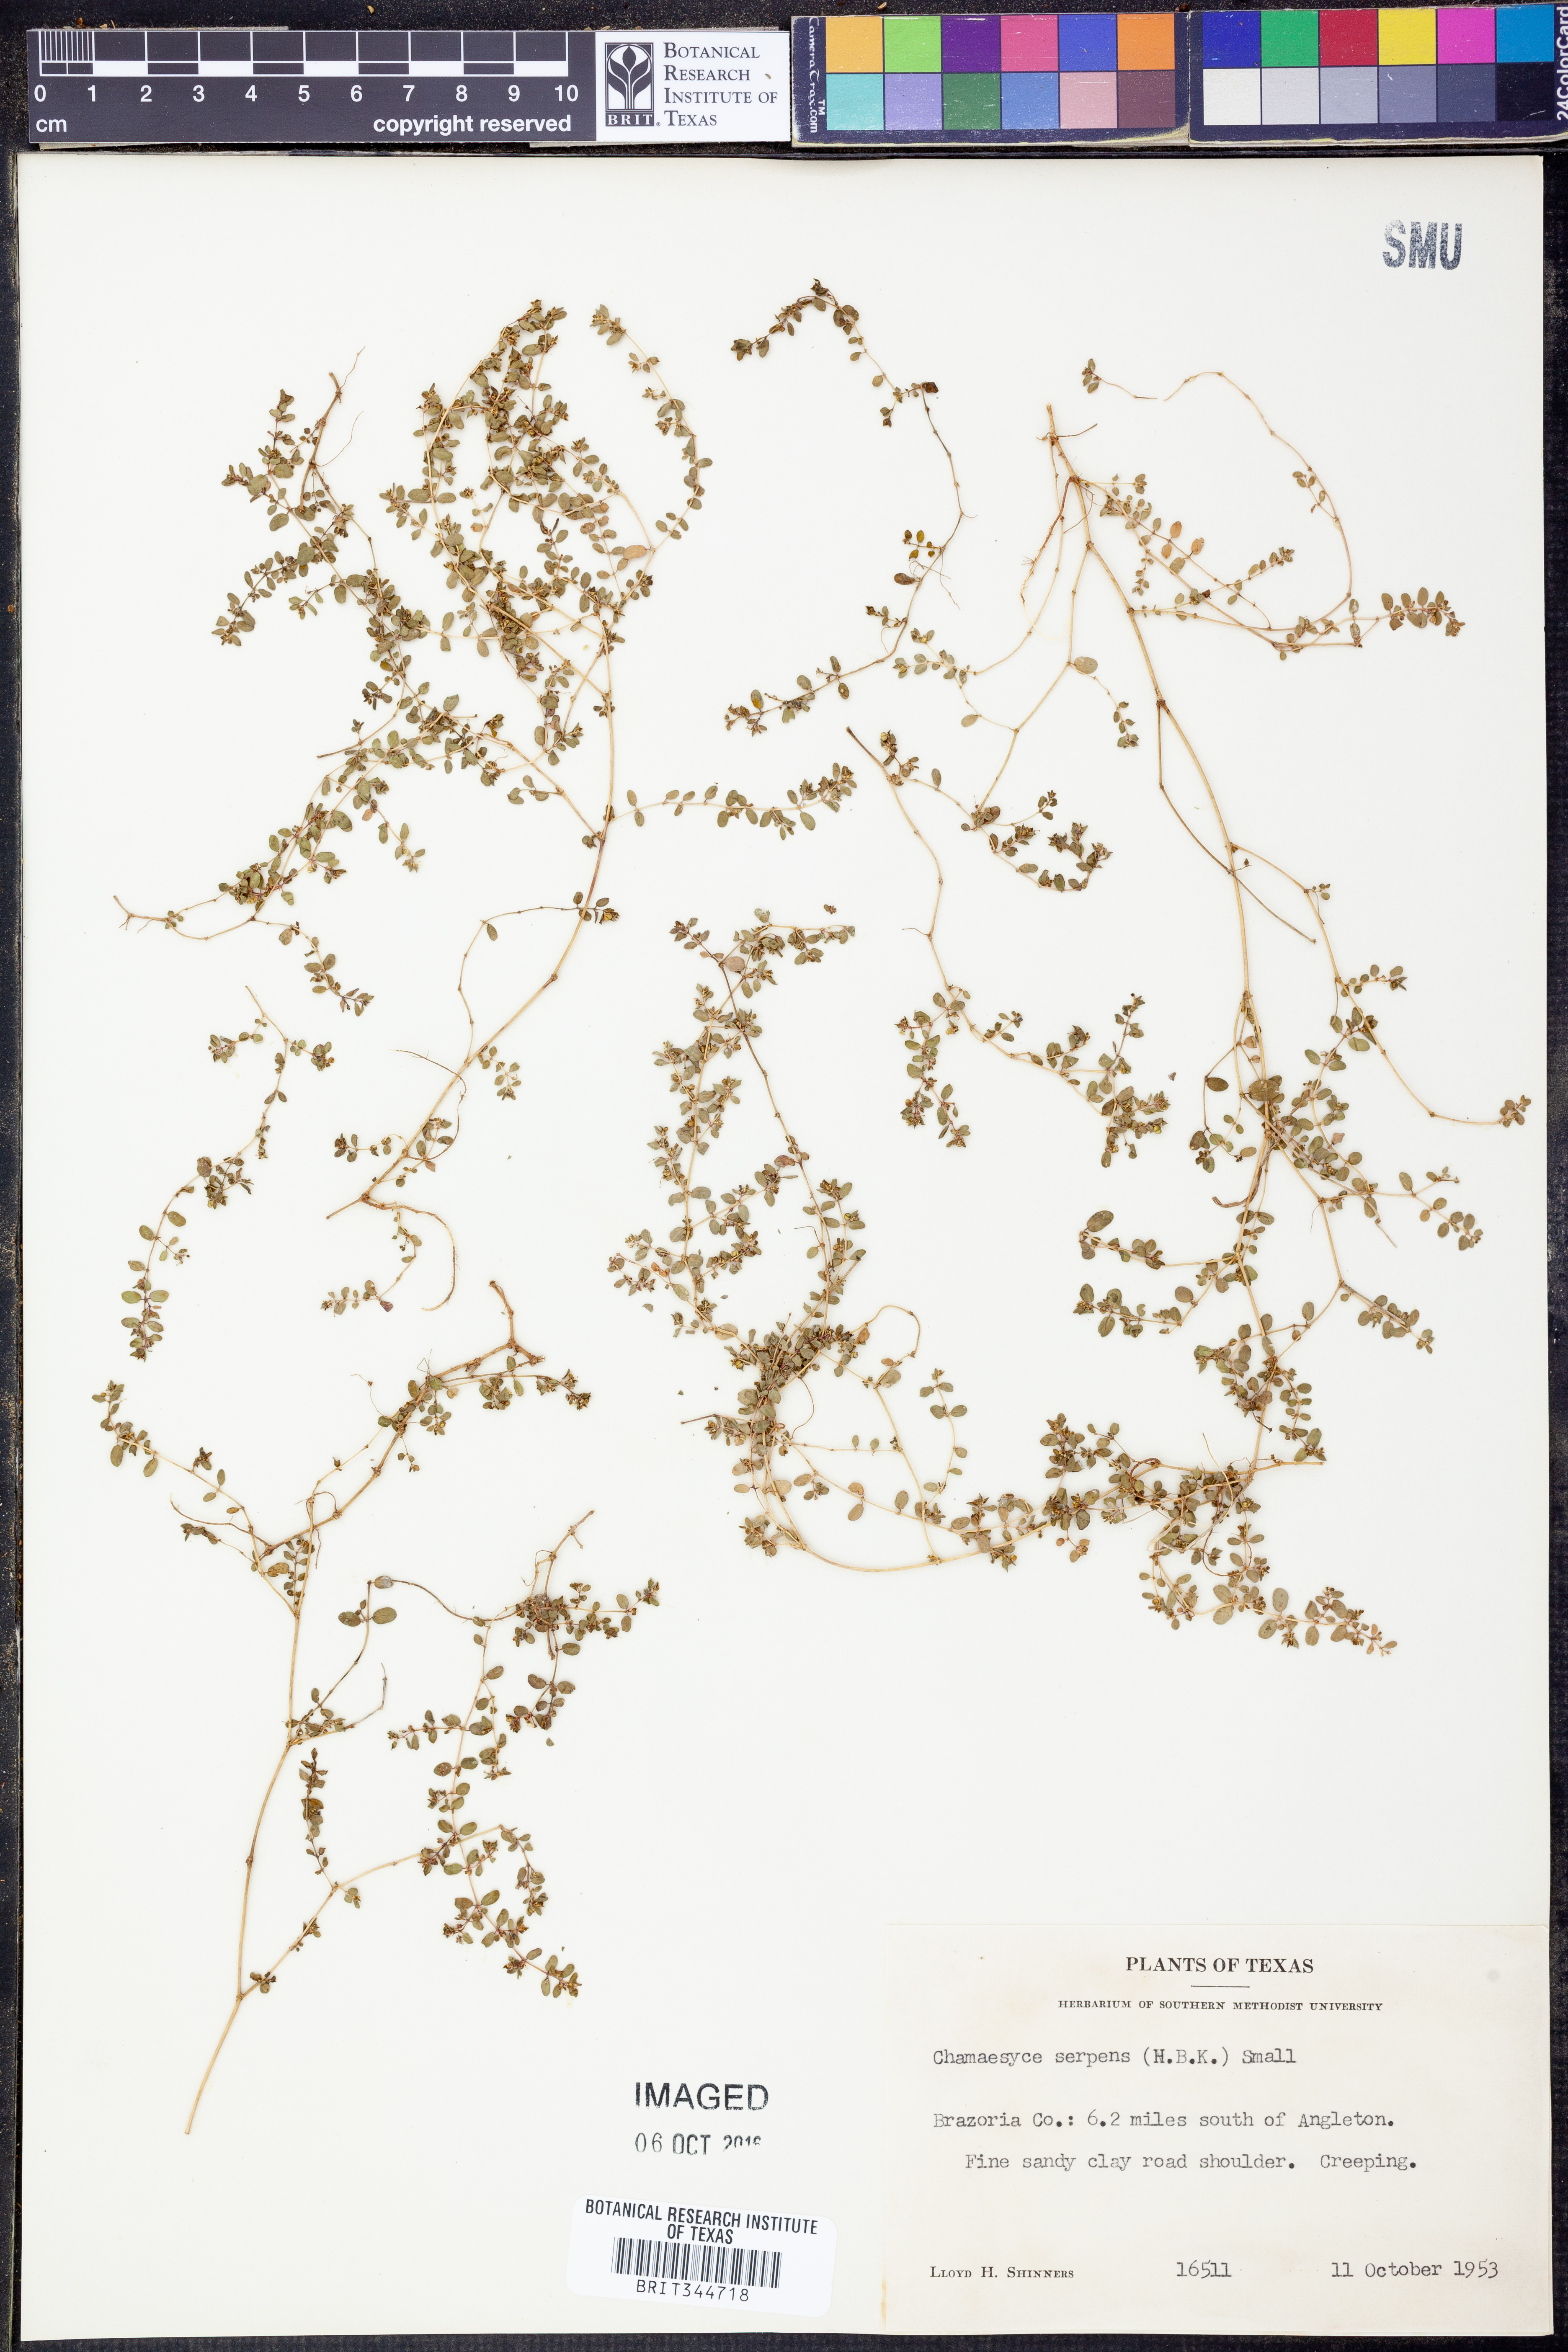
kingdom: Plantae
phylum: Tracheophyta
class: Magnoliopsida
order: Malpighiales
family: Euphorbiaceae
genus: Euphorbia
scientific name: Euphorbia serpens
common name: Matted sandmat
